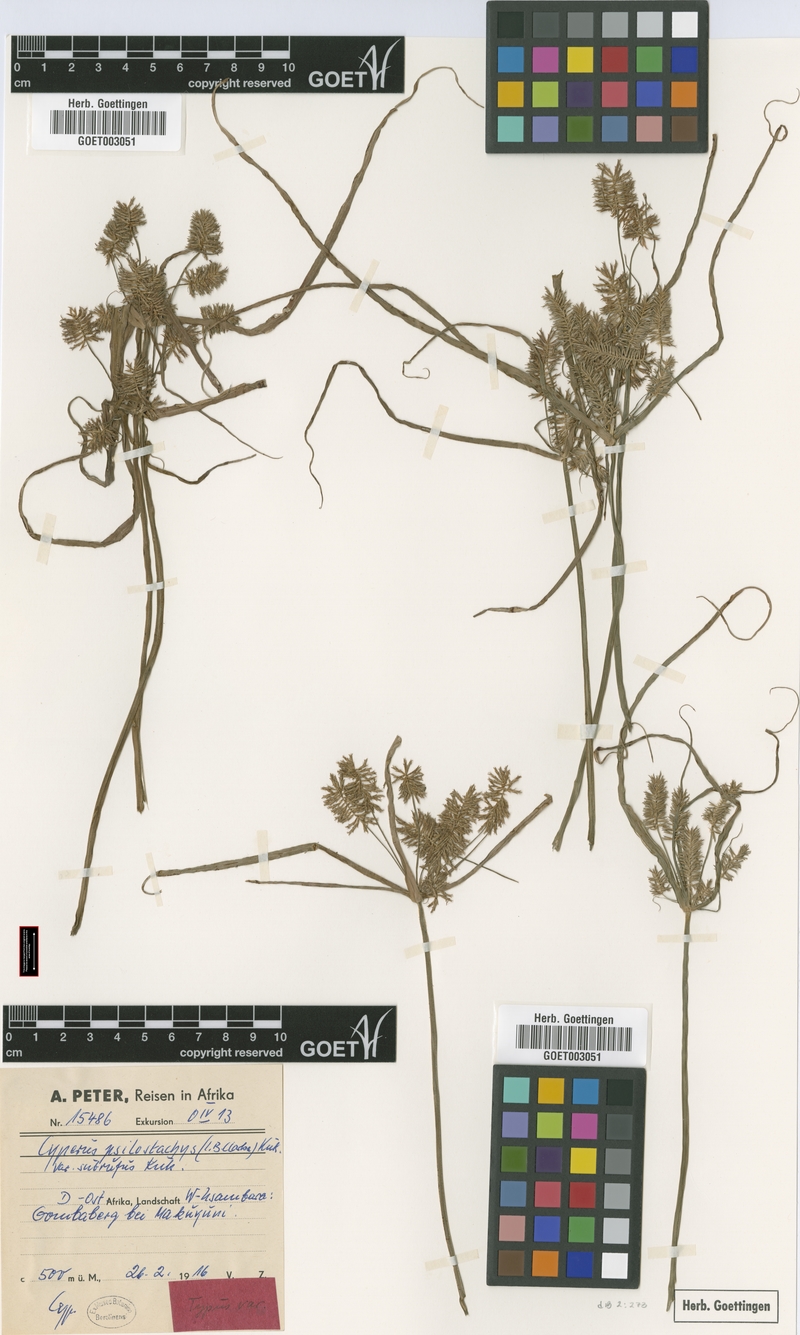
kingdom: Plantae
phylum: Tracheophyta
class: Liliopsida
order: Poales
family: Cyperaceae
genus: Cyperus
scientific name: Cyperus trigonellus
